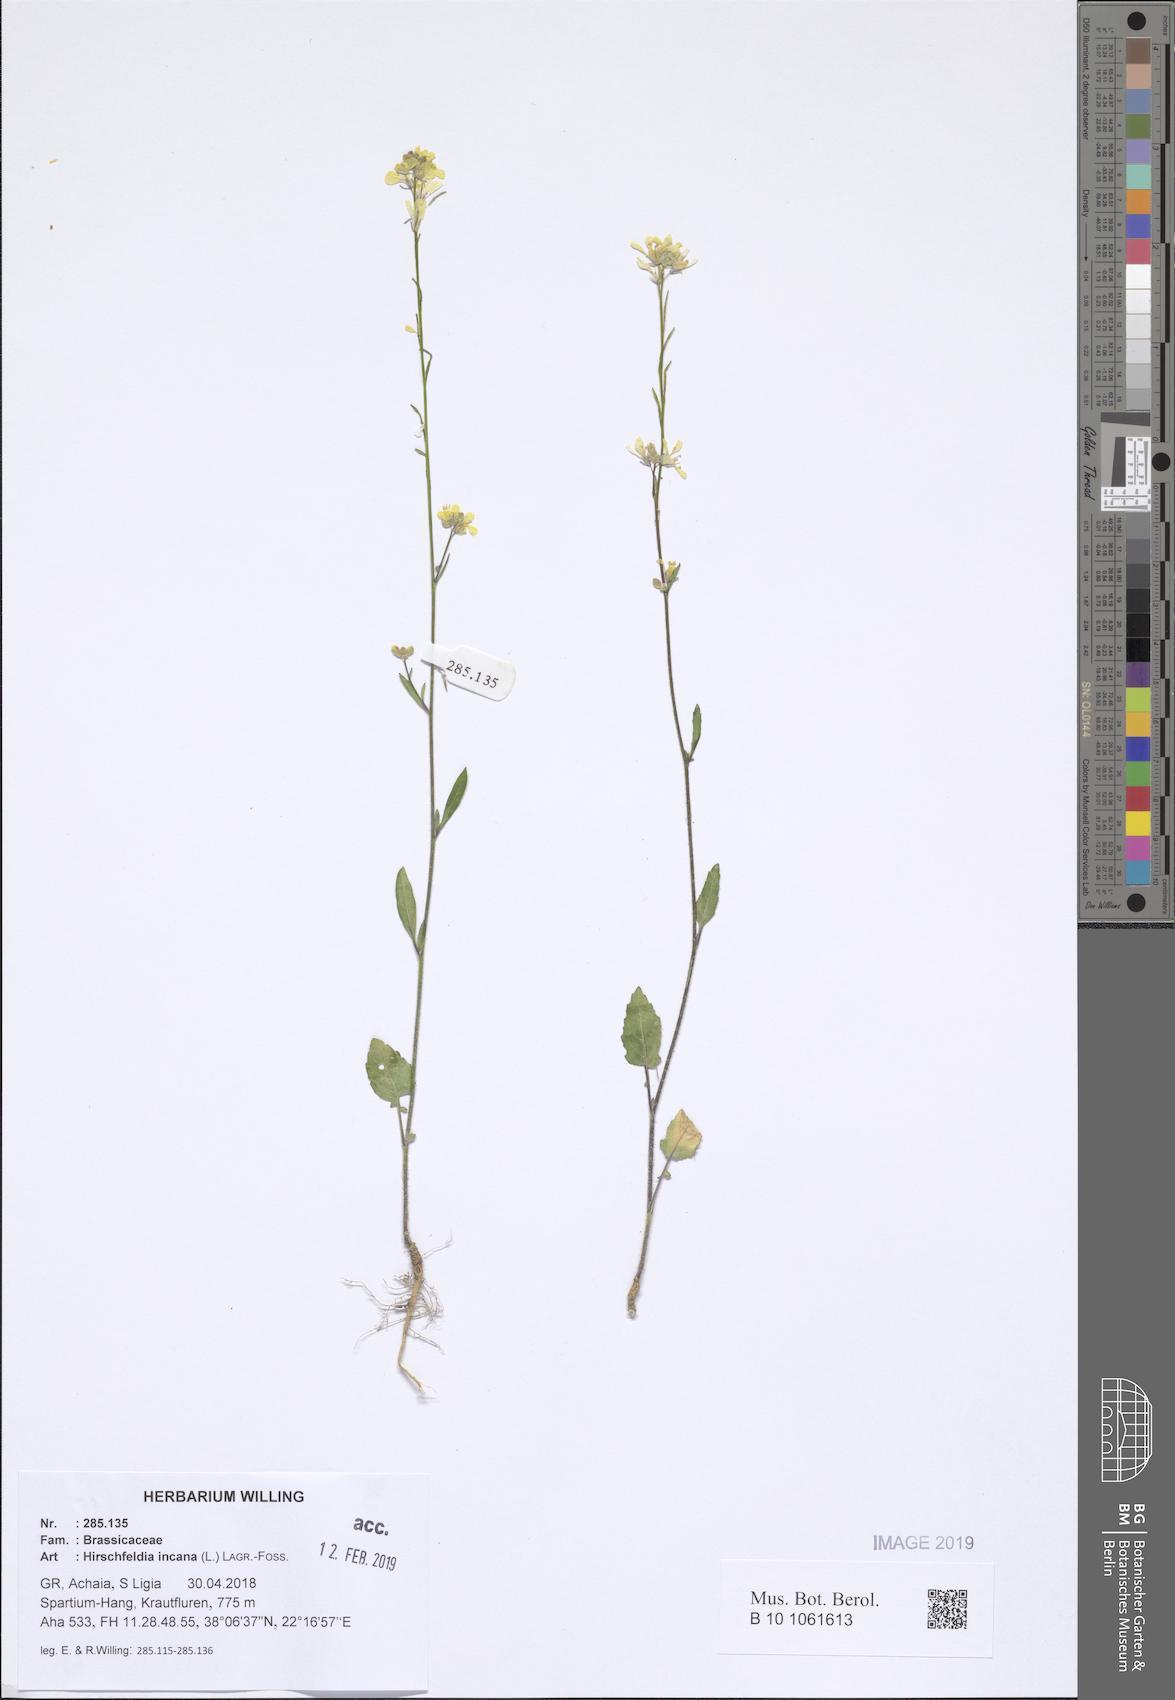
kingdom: Plantae
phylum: Tracheophyta
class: Magnoliopsida
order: Brassicales
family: Brassicaceae
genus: Hirschfeldia
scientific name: Hirschfeldia incana
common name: Hoary mustard
